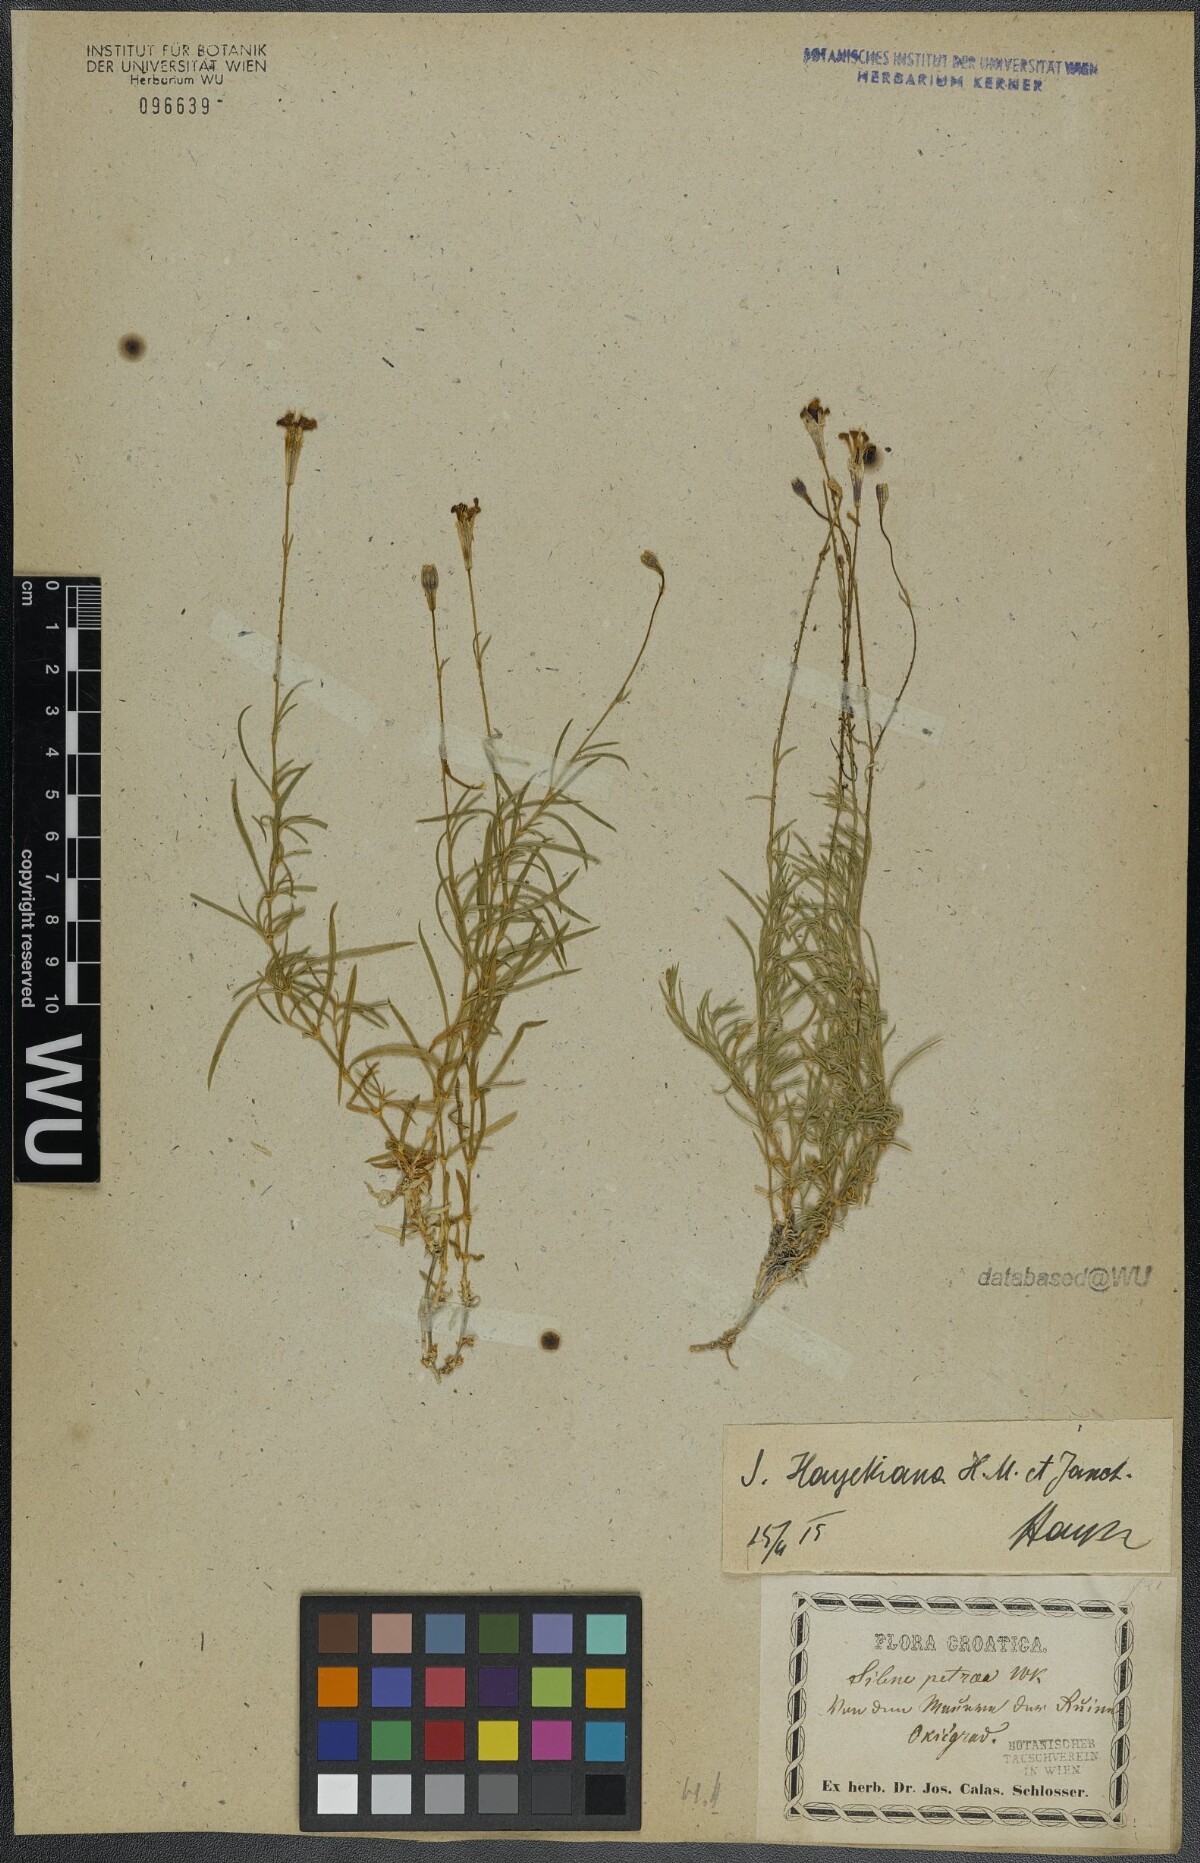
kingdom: Plantae
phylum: Tracheophyta
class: Magnoliopsida
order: Caryophyllales
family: Caryophyllaceae
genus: Silene
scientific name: Silene hayekiana
